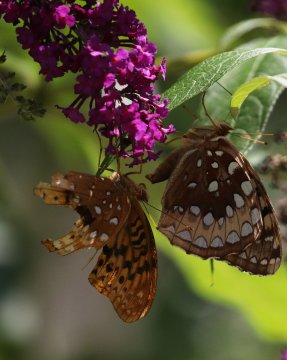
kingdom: Animalia
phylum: Arthropoda
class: Insecta
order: Lepidoptera
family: Nymphalidae
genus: Speyeria
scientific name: Speyeria cybele
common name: Great Spangled Fritillary
